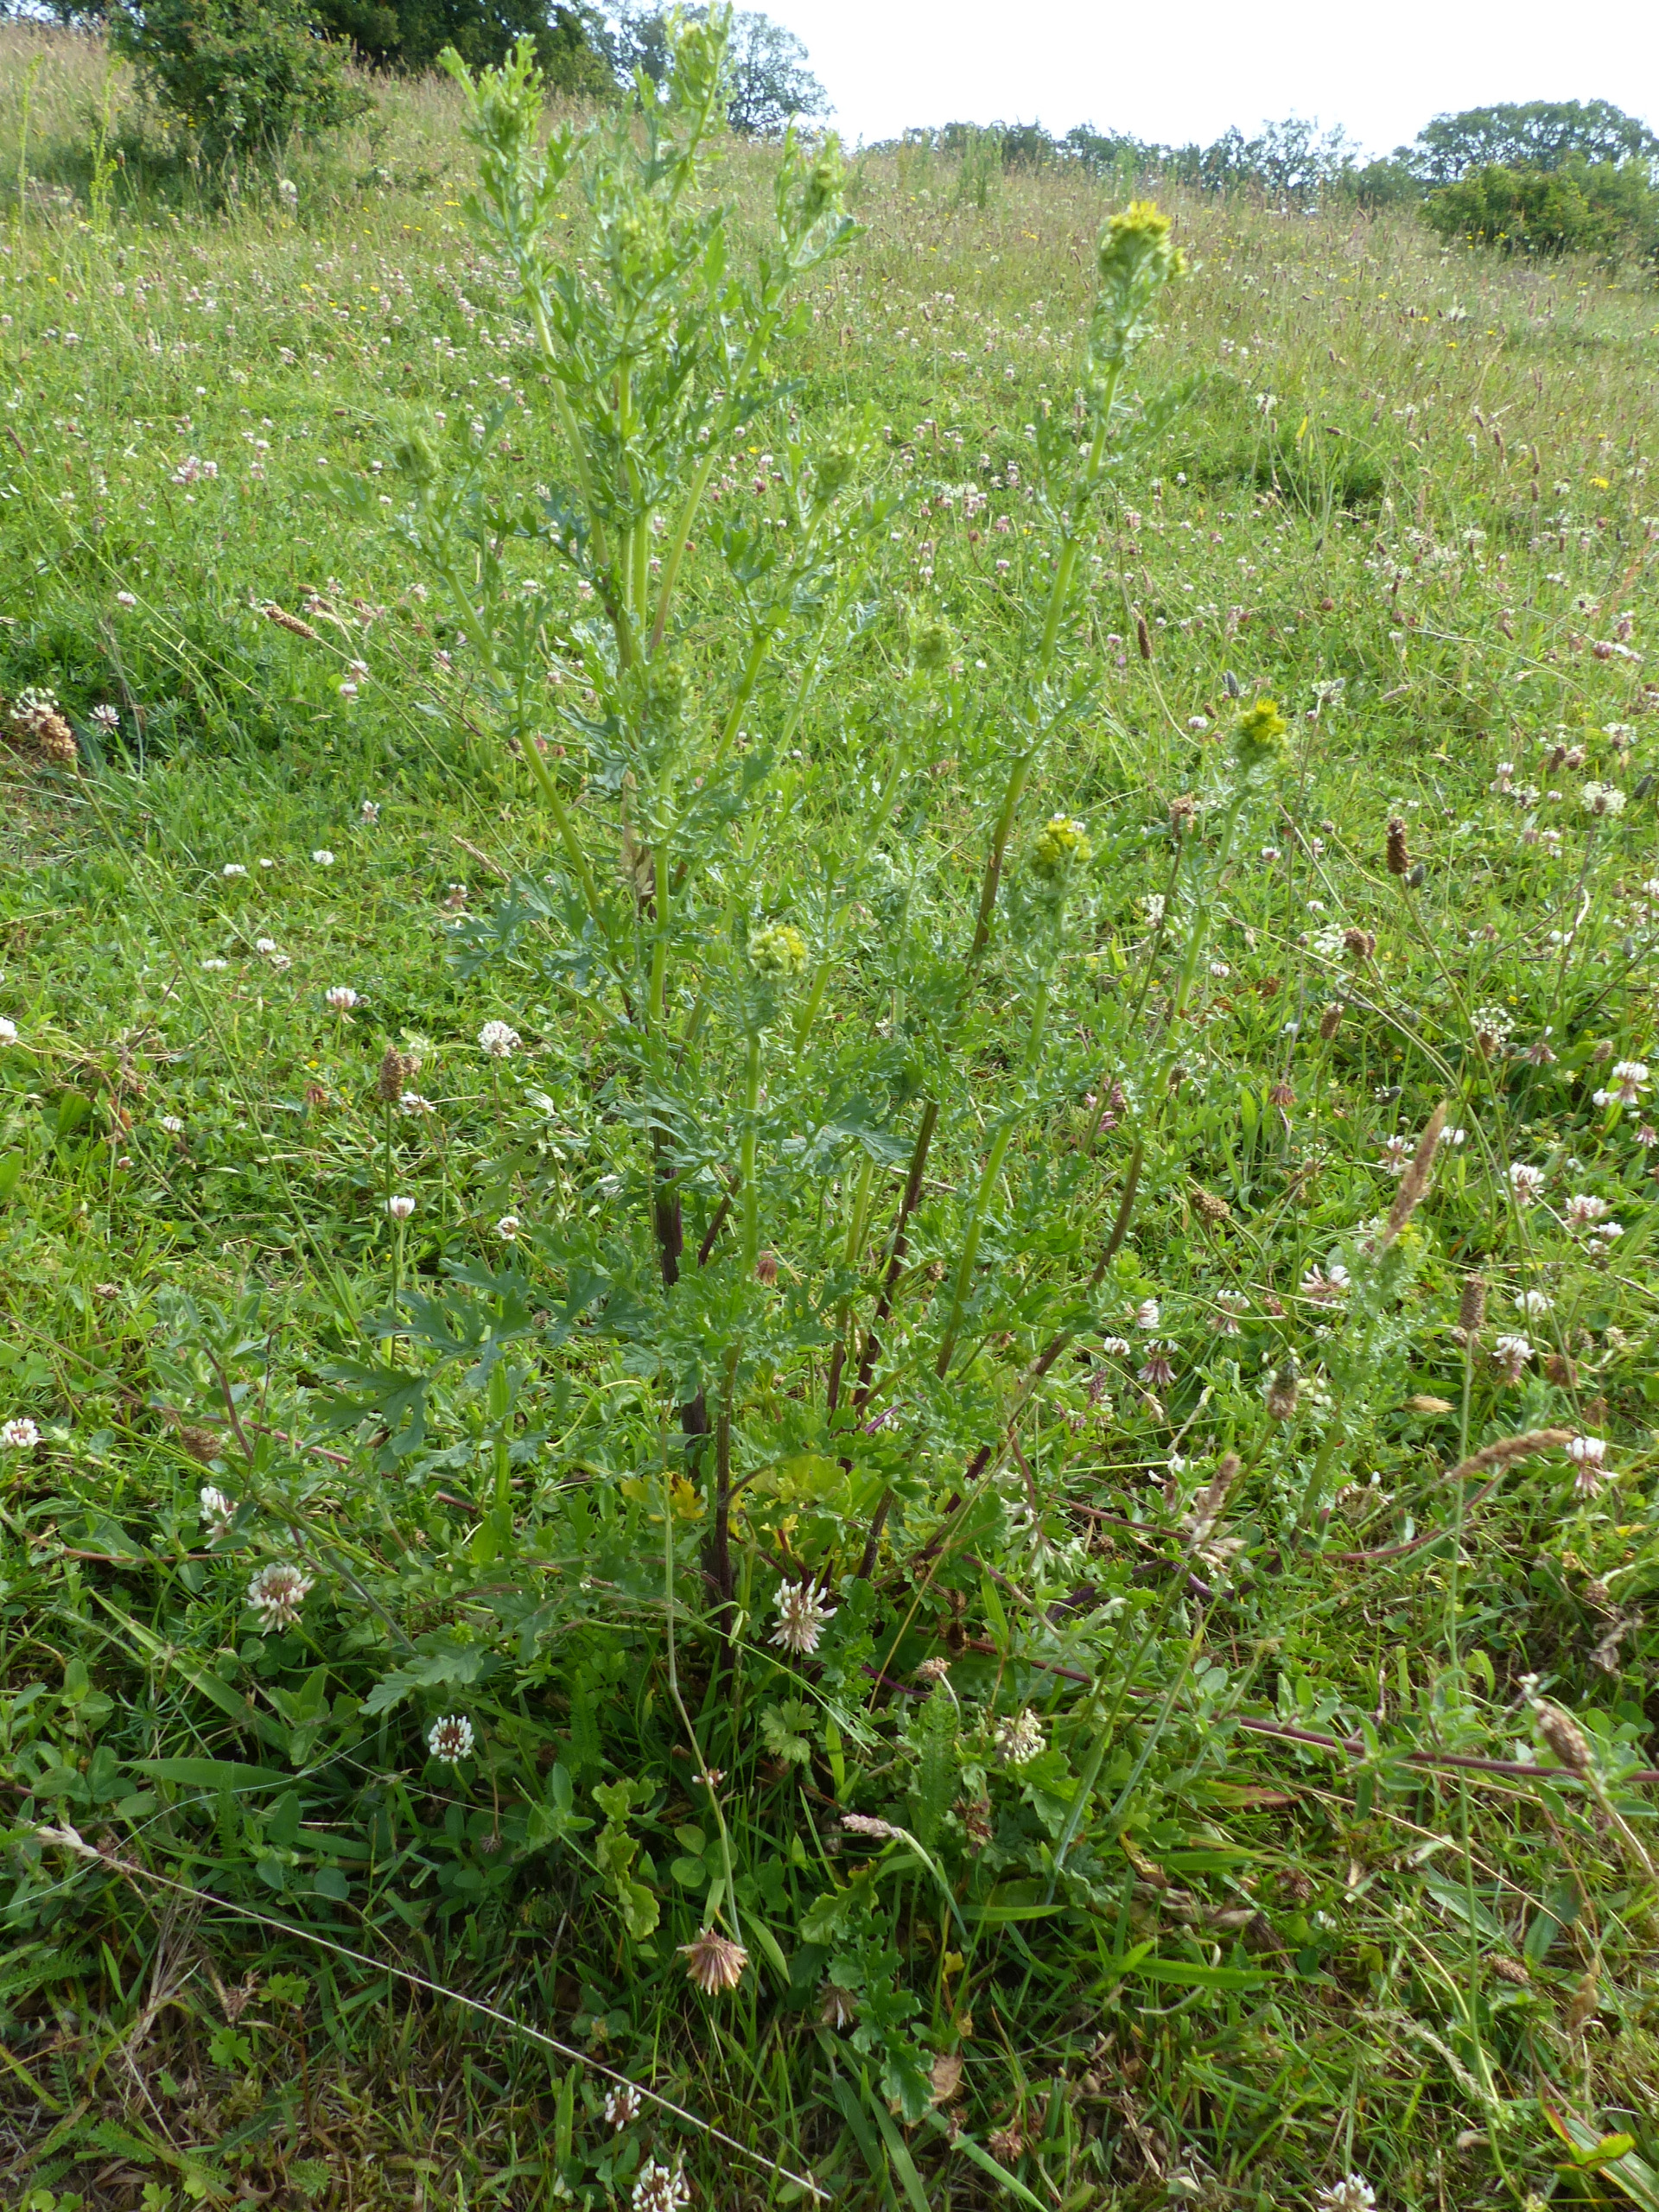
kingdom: Plantae
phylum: Tracheophyta
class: Magnoliopsida
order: Asterales
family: Asteraceae
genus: Jacobaea
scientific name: Jacobaea vulgaris
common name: Eng-brandbæger
